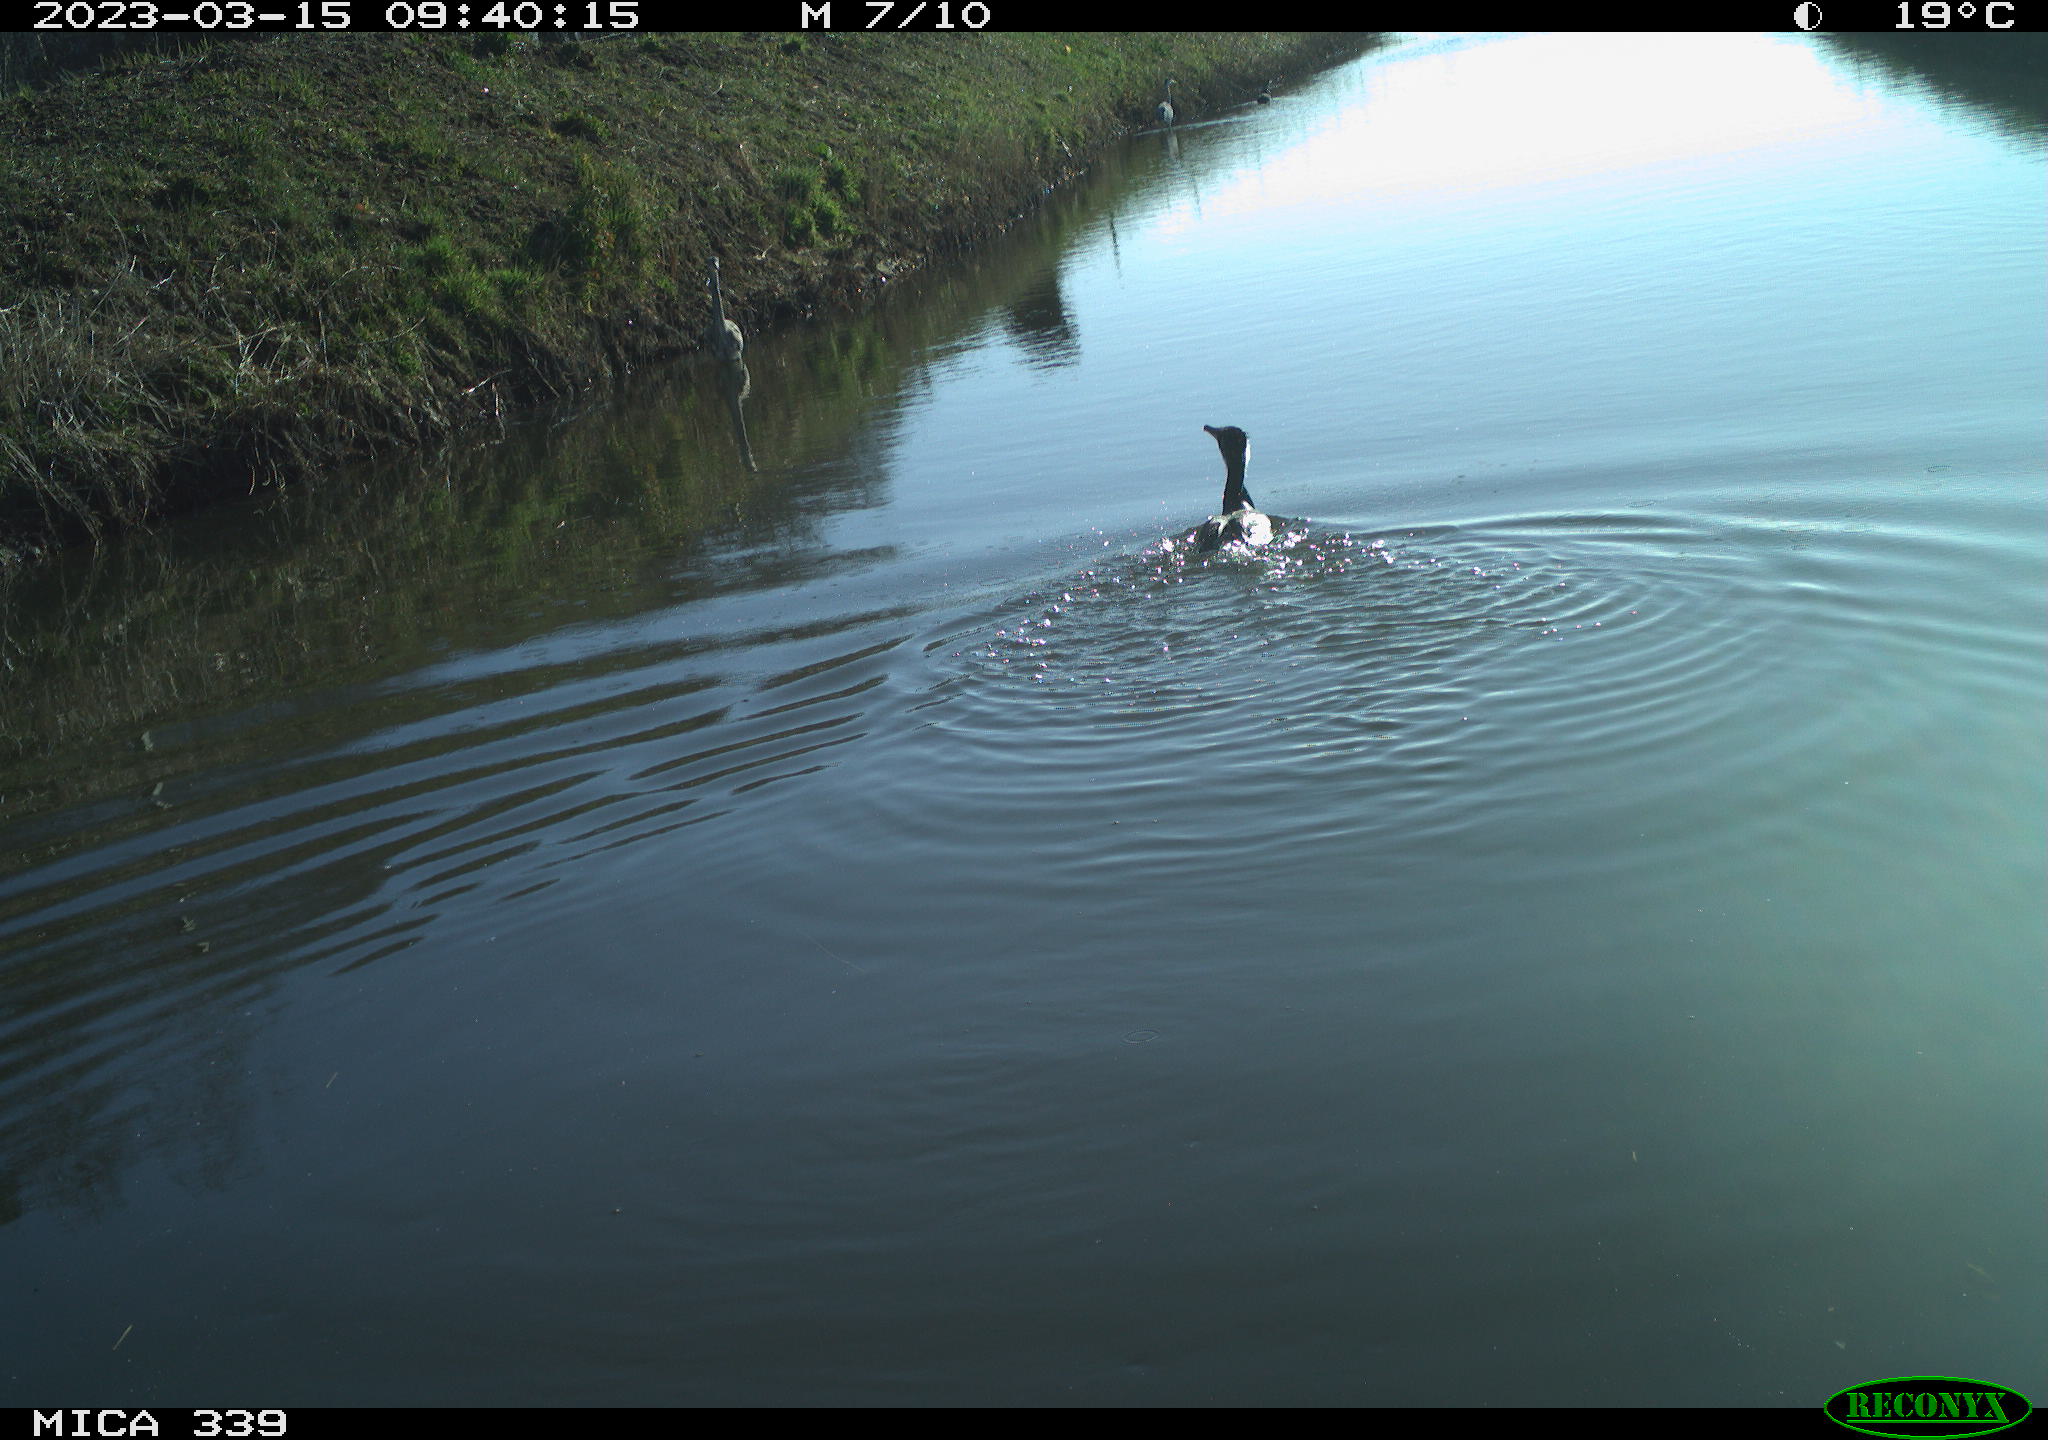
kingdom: Animalia
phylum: Chordata
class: Aves
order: Suliformes
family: Phalacrocoracidae
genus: Phalacrocorax
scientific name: Phalacrocorax carbo
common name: Great cormorant
